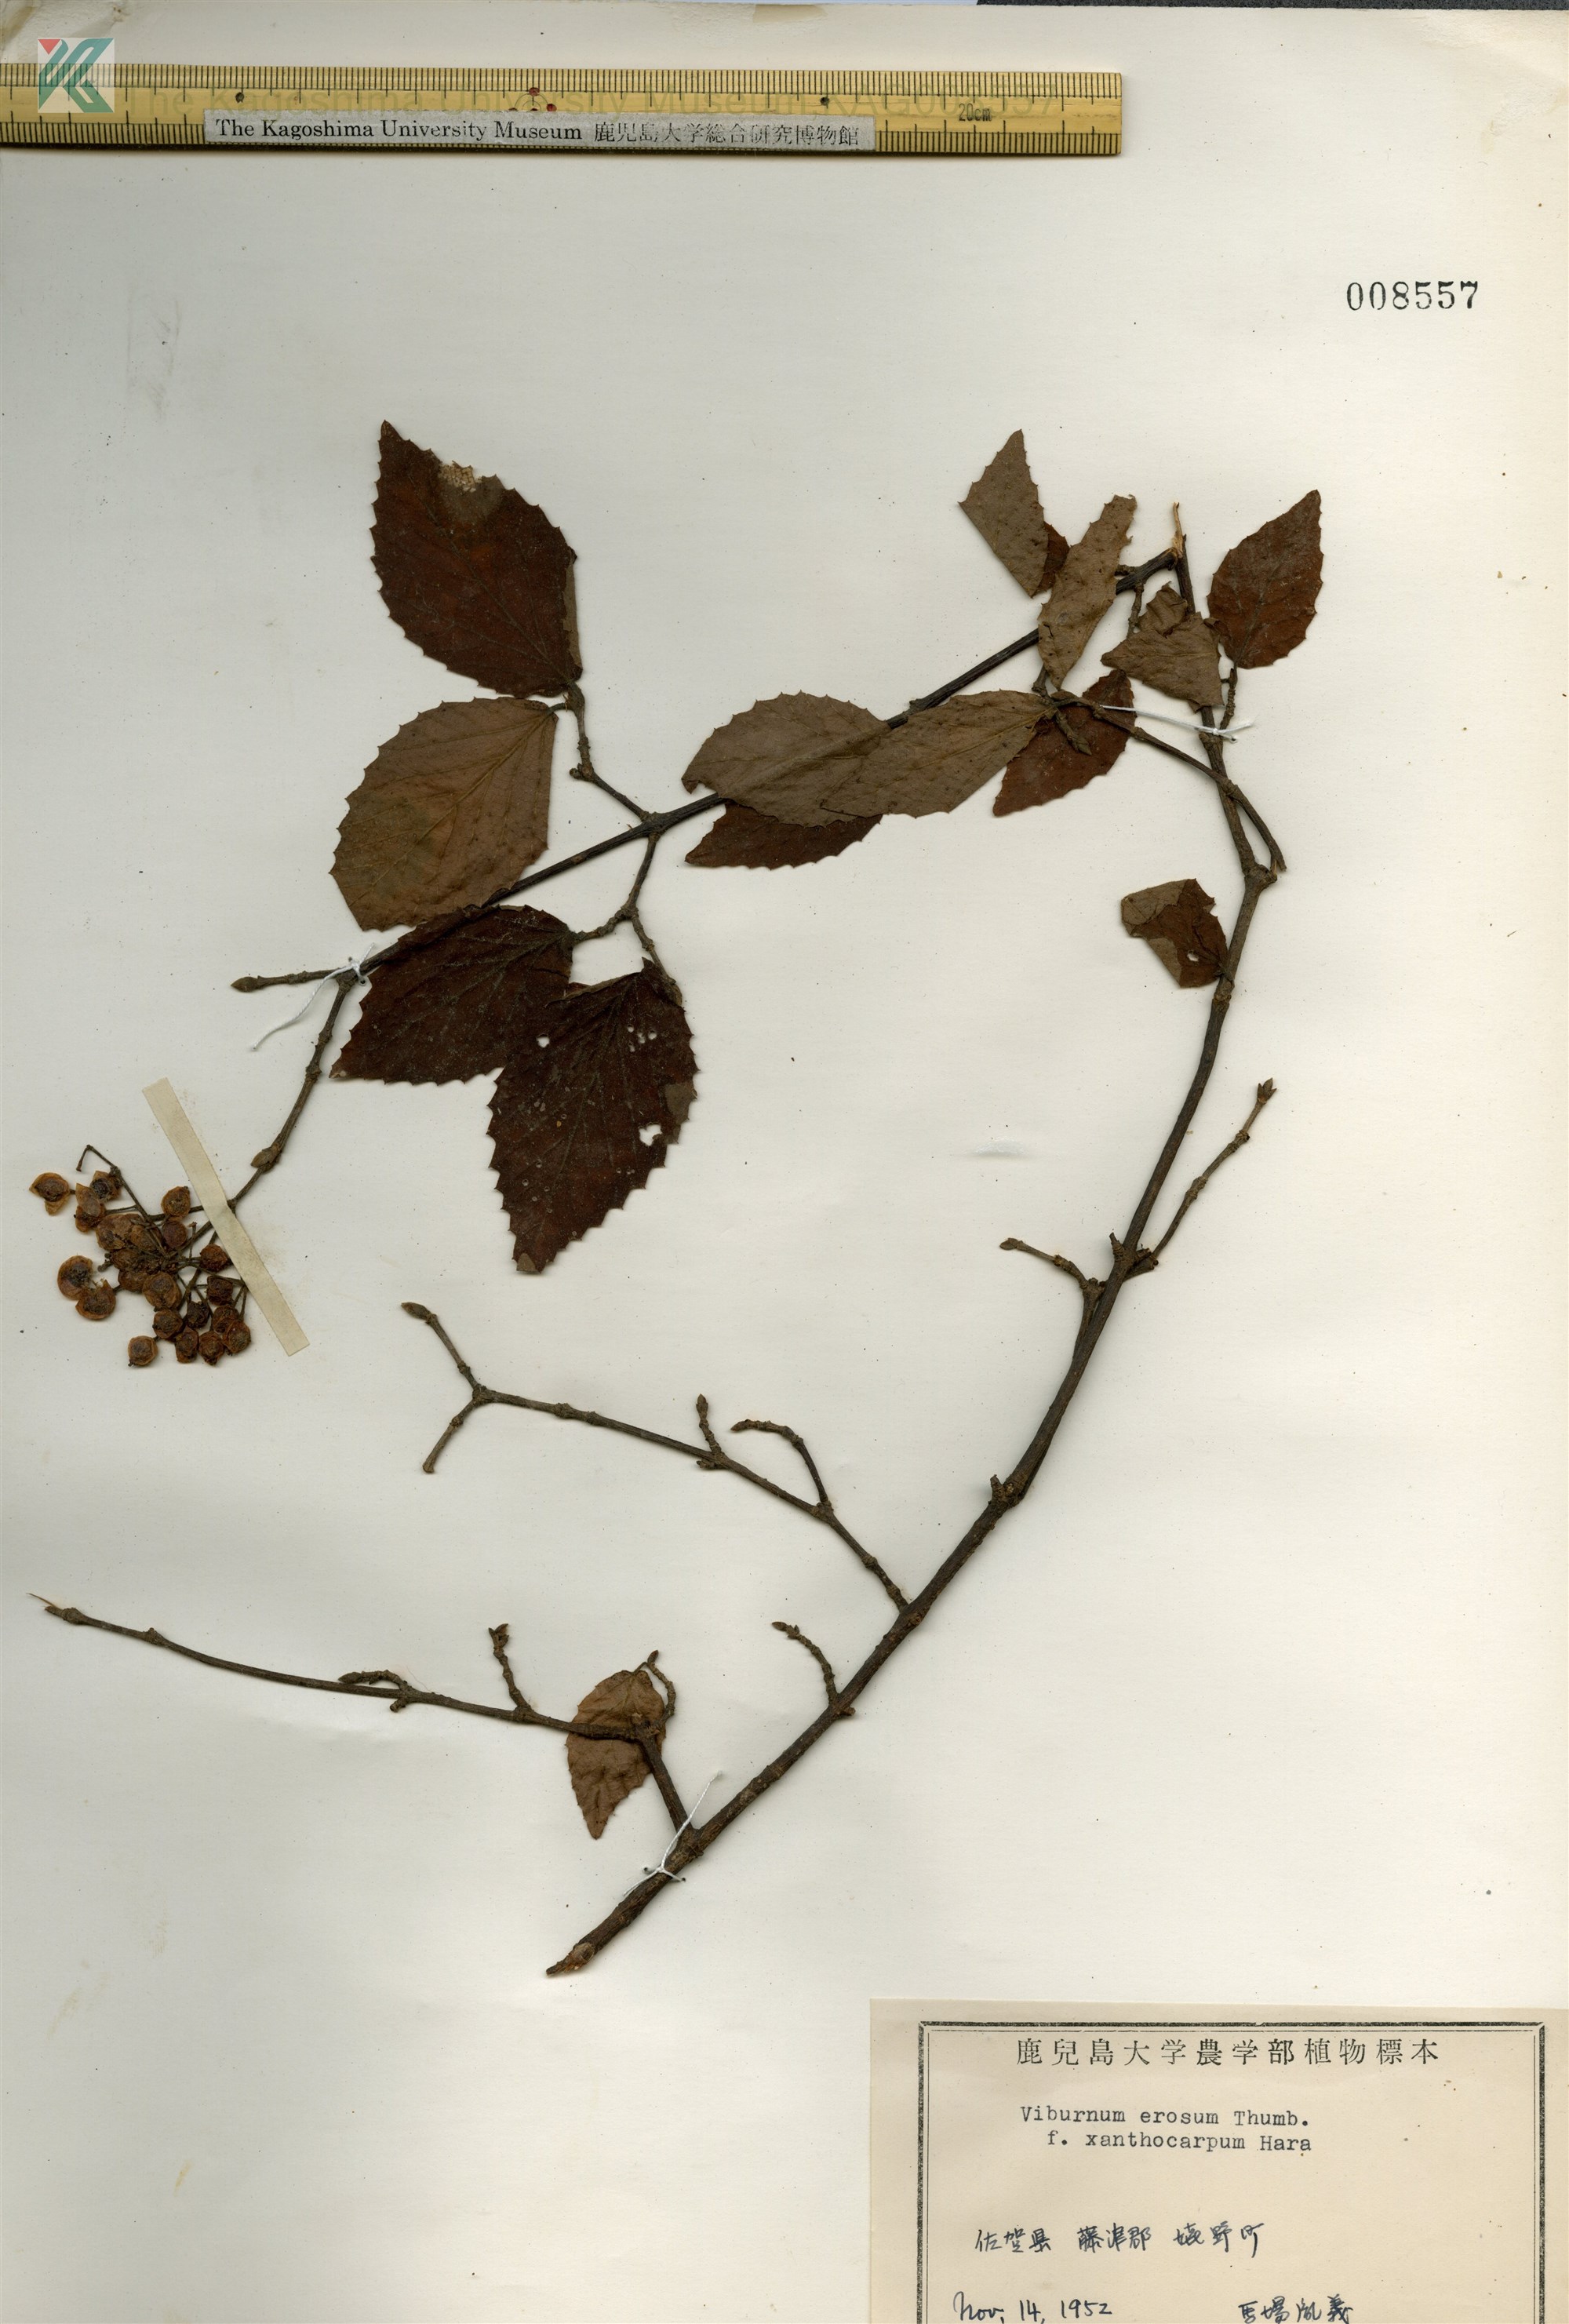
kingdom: Plantae
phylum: Tracheophyta
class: Magnoliopsida
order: Dipsacales
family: Viburnaceae
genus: Viburnum
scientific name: Viburnum erosum
